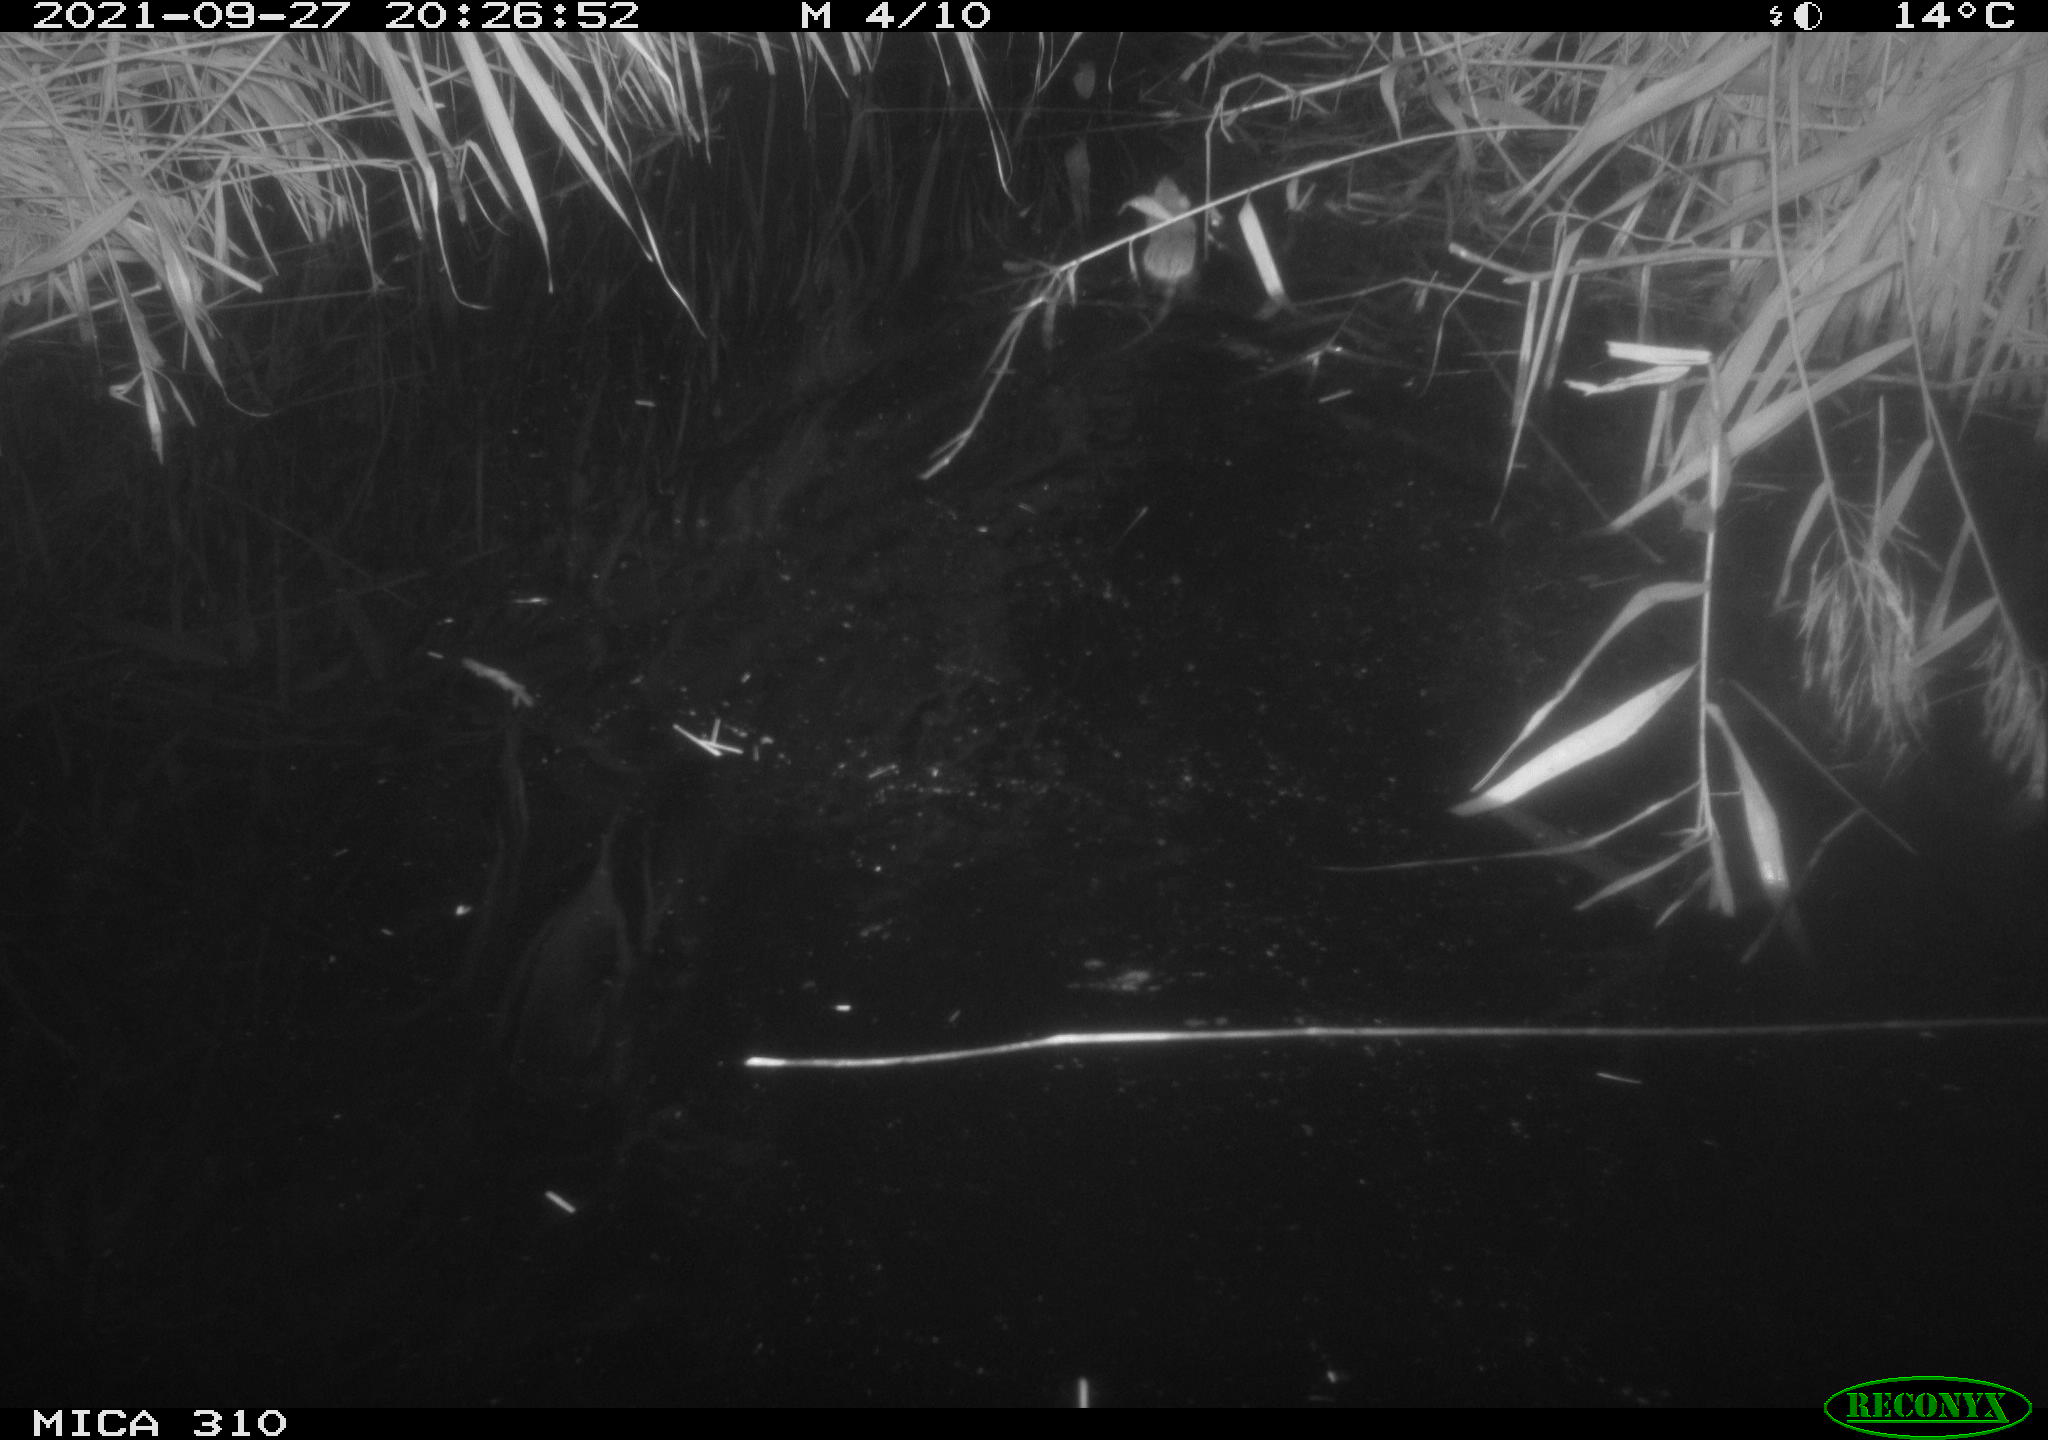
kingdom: Animalia
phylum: Chordata
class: Mammalia
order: Rodentia
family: Muridae
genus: Rattus
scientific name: Rattus norvegicus
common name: Brown rat
